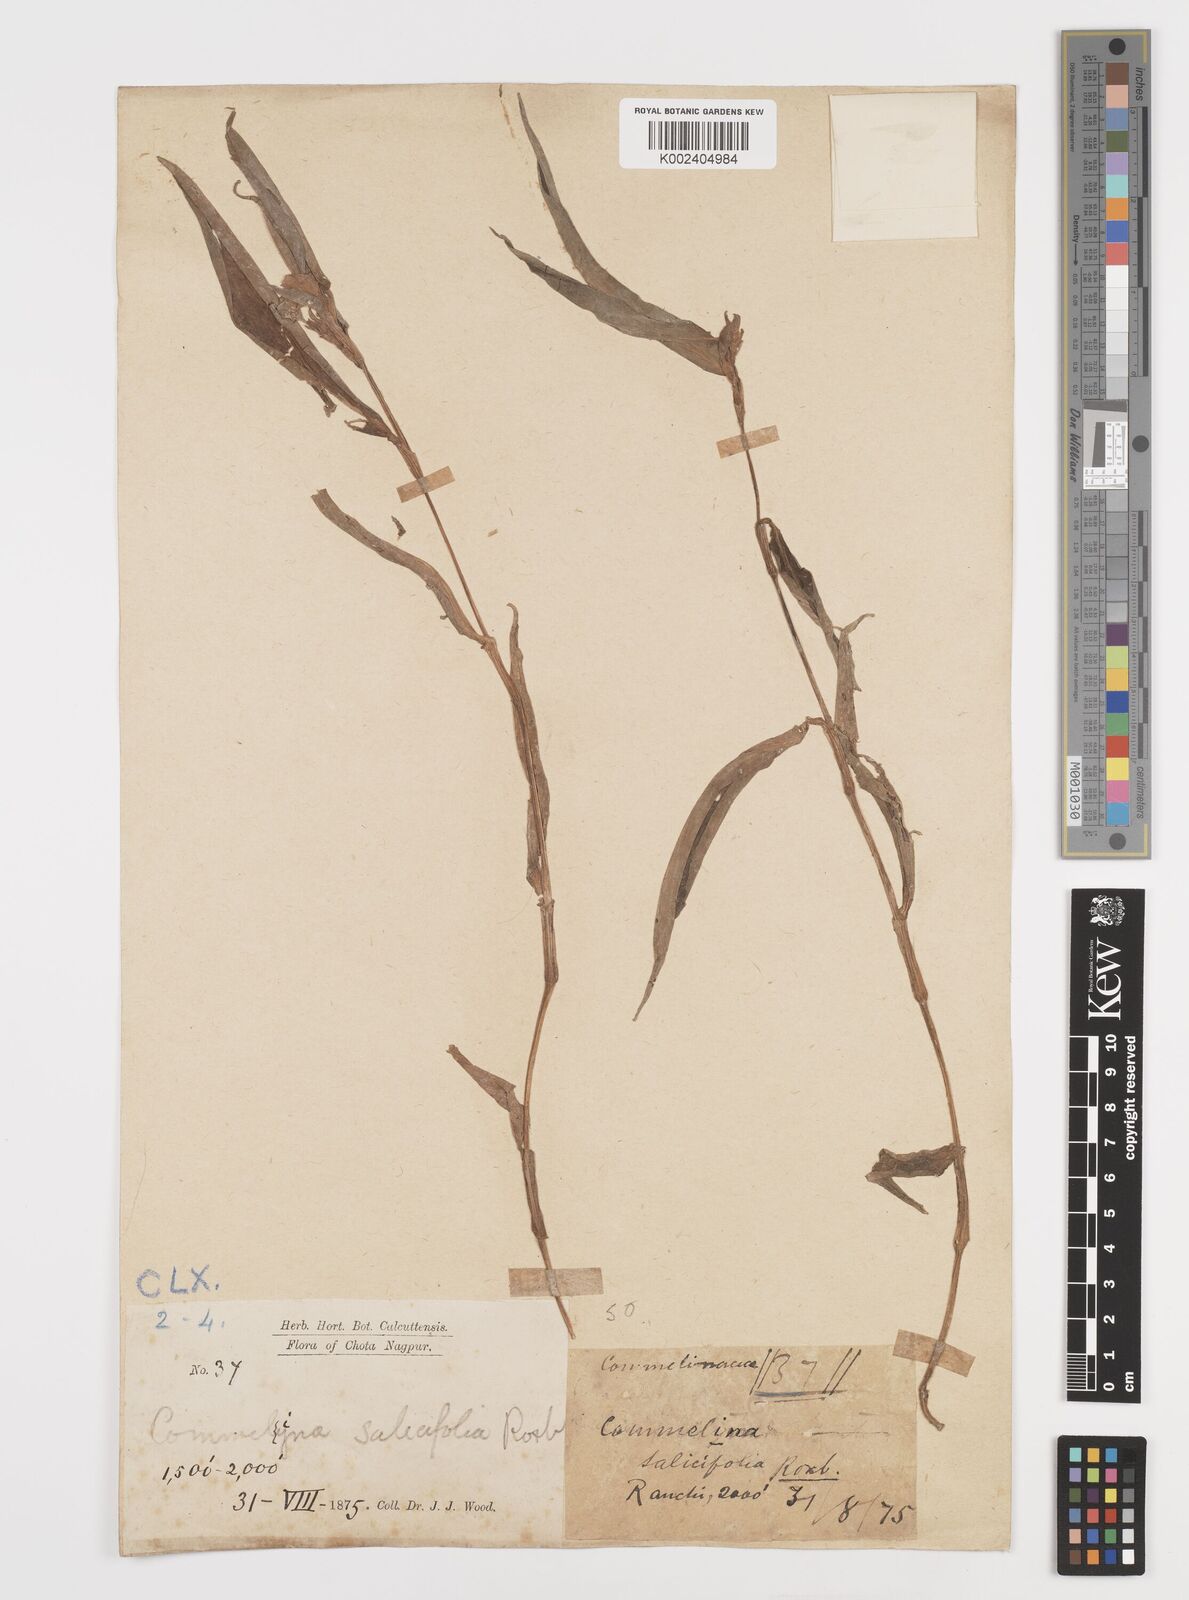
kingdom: Plantae
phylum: Tracheophyta
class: Liliopsida
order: Commelinales
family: Commelinaceae
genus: Commelina
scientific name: Commelina undulata
